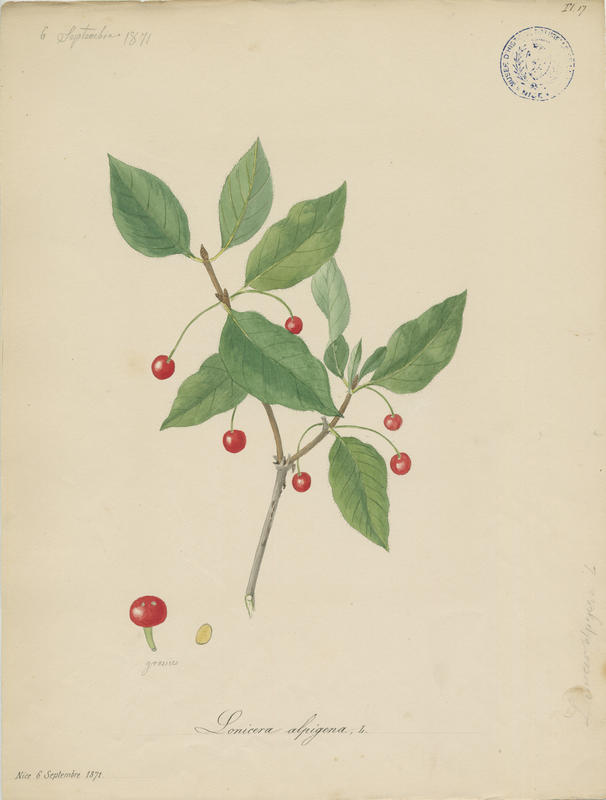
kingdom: Plantae
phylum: Tracheophyta
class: Magnoliopsida
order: Dipsacales
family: Caprifoliaceae
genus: Lonicera
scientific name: Lonicera alpigena
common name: Alpine honeysuckle
